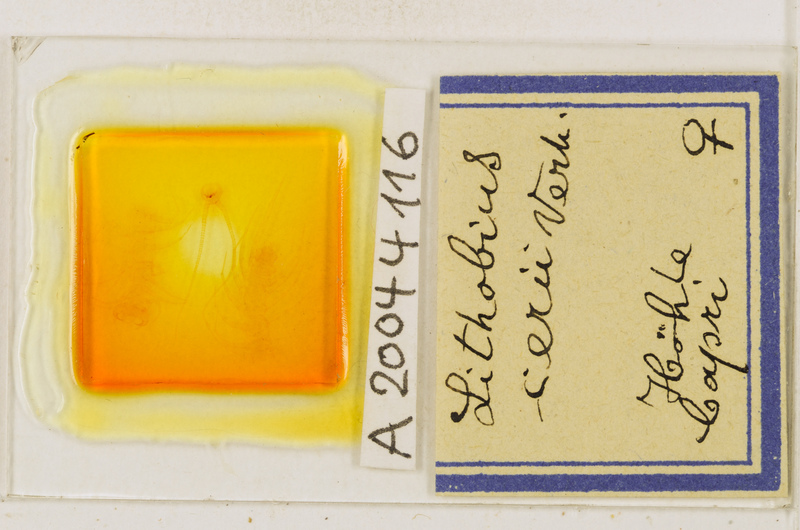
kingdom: Animalia
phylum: Arthropoda
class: Chilopoda
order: Lithobiomorpha
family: Lithobiidae
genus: Lithobius
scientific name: Lithobius cerii
